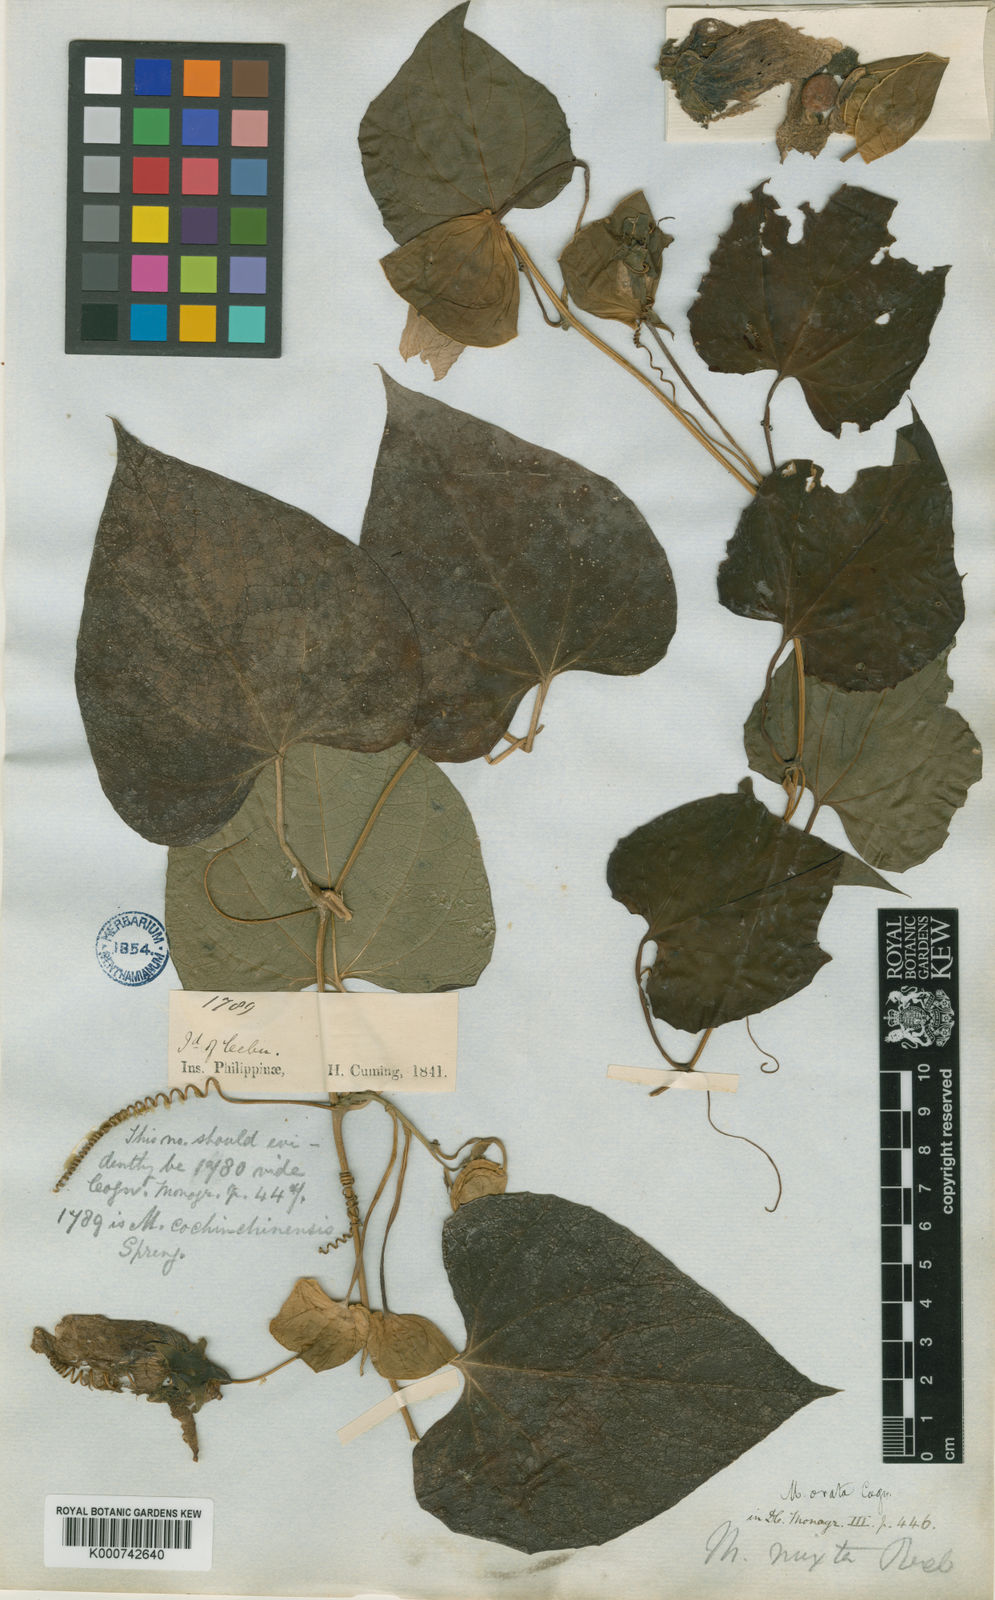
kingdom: Plantae
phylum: Tracheophyta
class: Magnoliopsida
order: Cucurbitales
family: Cucurbitaceae
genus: Momordica
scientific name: Momordica cochinchinensis
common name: Chinese bitter-cucumber
